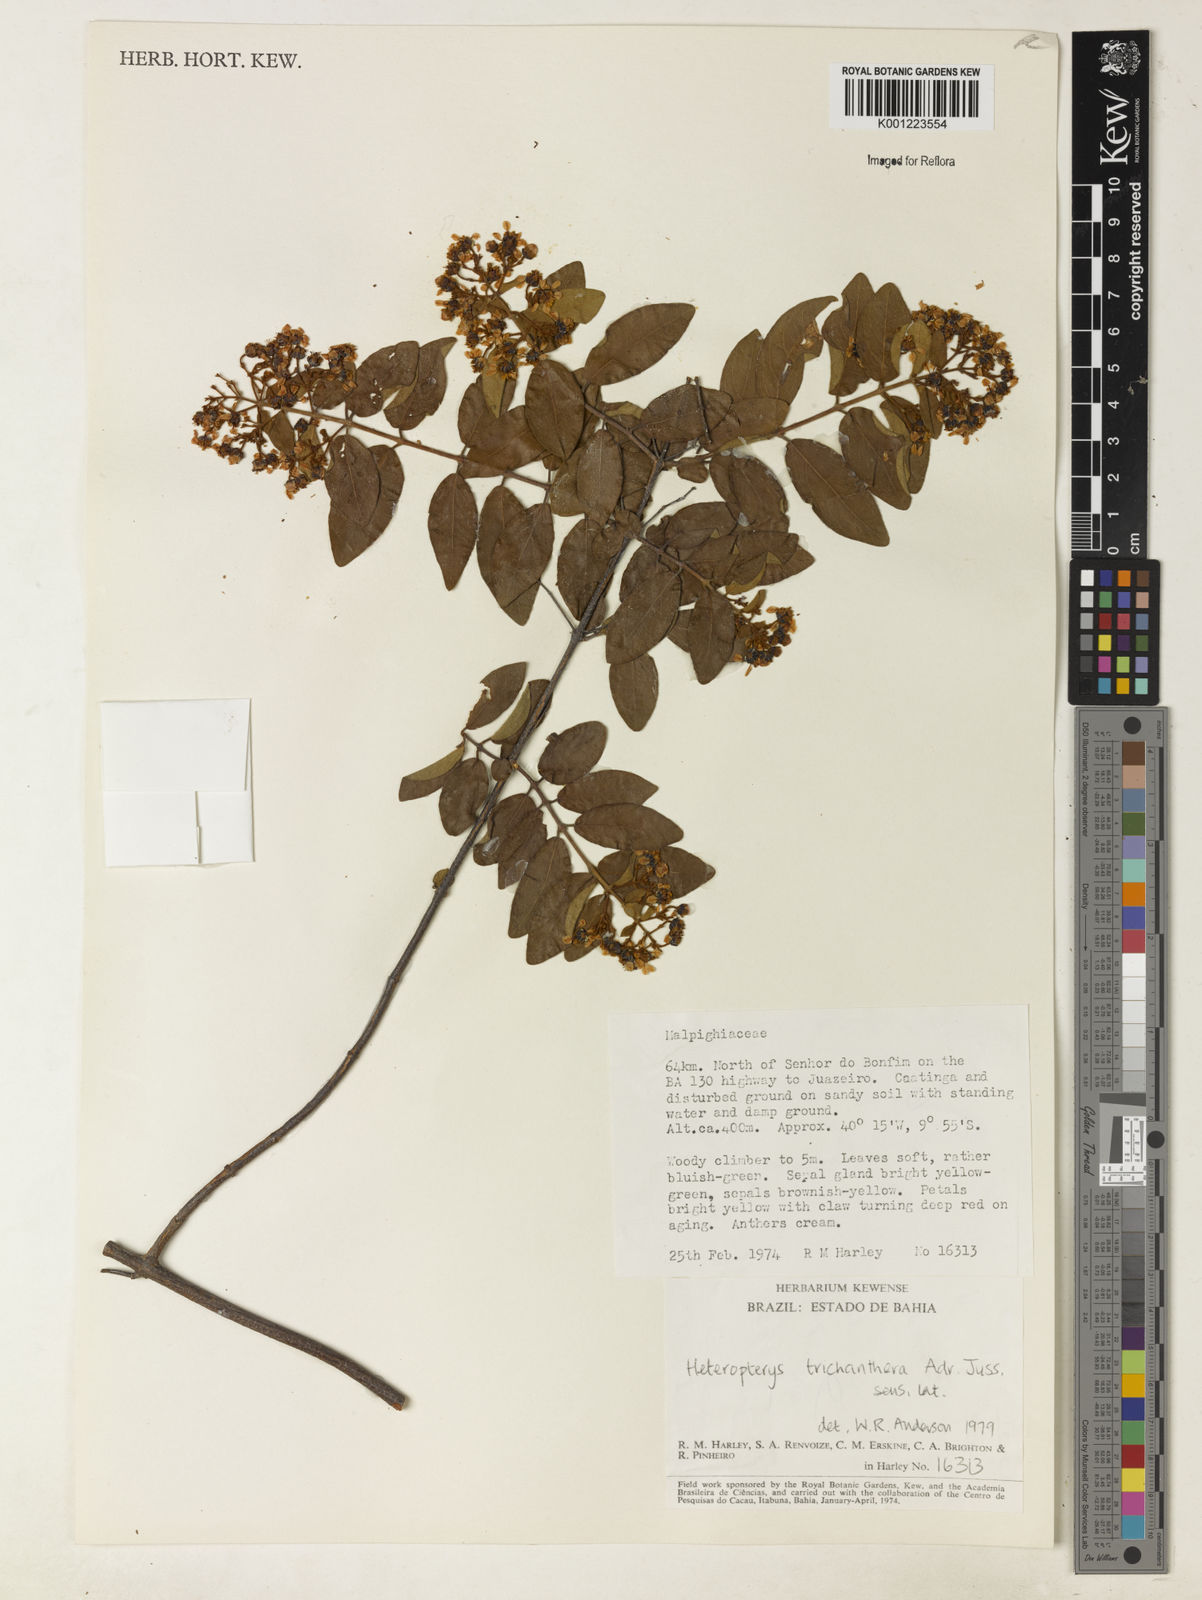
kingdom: Plantae
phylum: Tracheophyta
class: Magnoliopsida
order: Malpighiales
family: Malpighiaceae
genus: Heteropterys
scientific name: Heteropterys trichanthera
